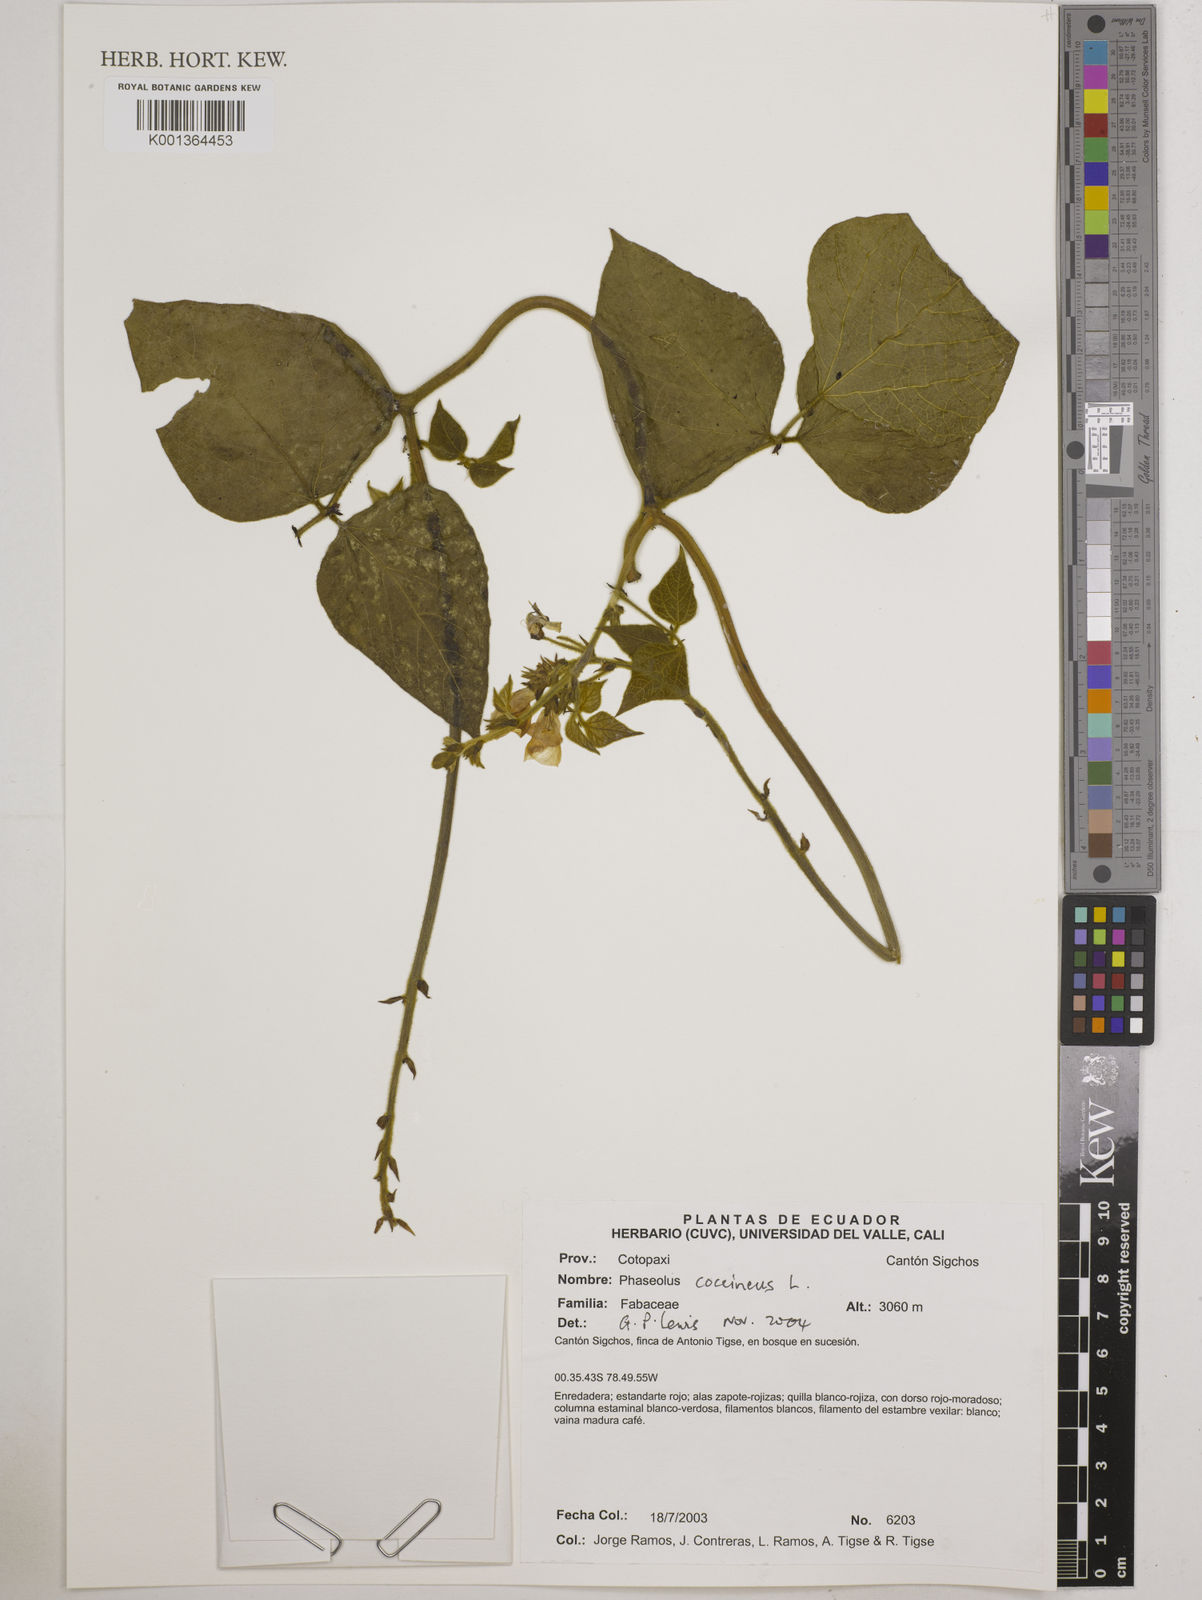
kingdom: Plantae
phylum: Tracheophyta
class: Magnoliopsida
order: Fabales
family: Fabaceae
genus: Phaseolus
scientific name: Phaseolus coccineus
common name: Runner bean
